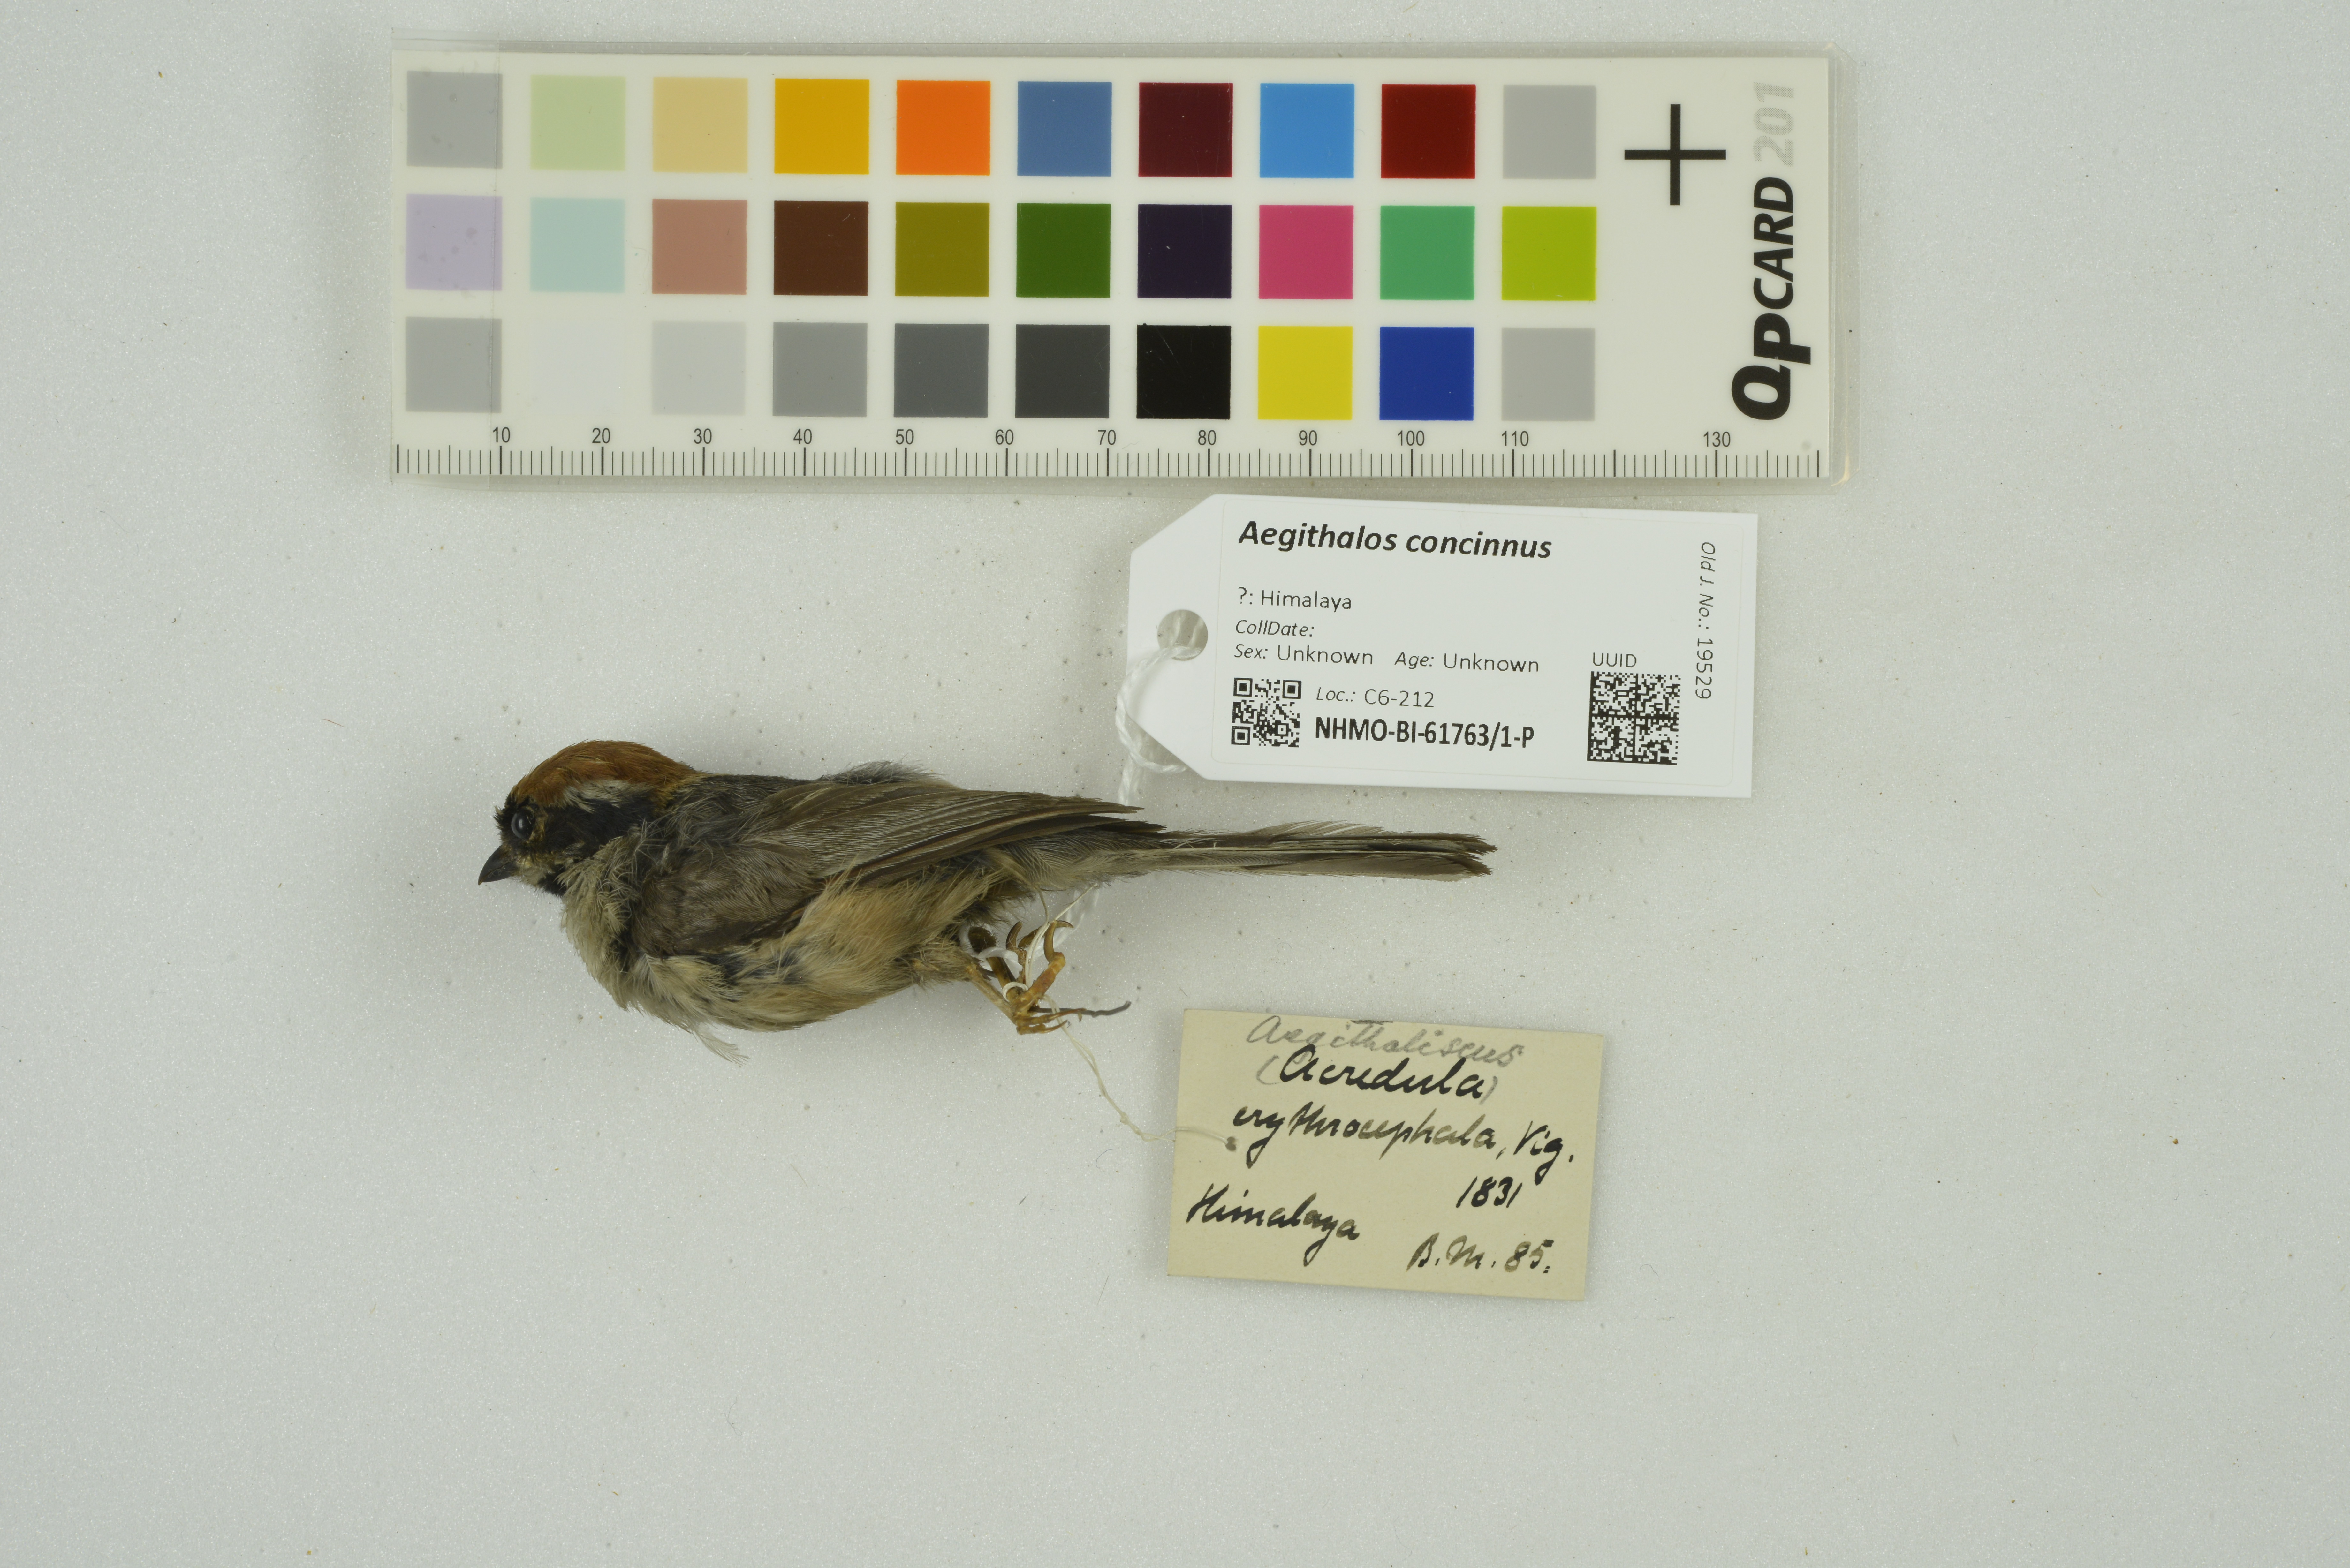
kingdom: Animalia
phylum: Chordata
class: Aves
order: Passeriformes
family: Aegithalidae
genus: Aegithalos
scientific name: Aegithalos concinnus
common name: Black-throated bushtit
